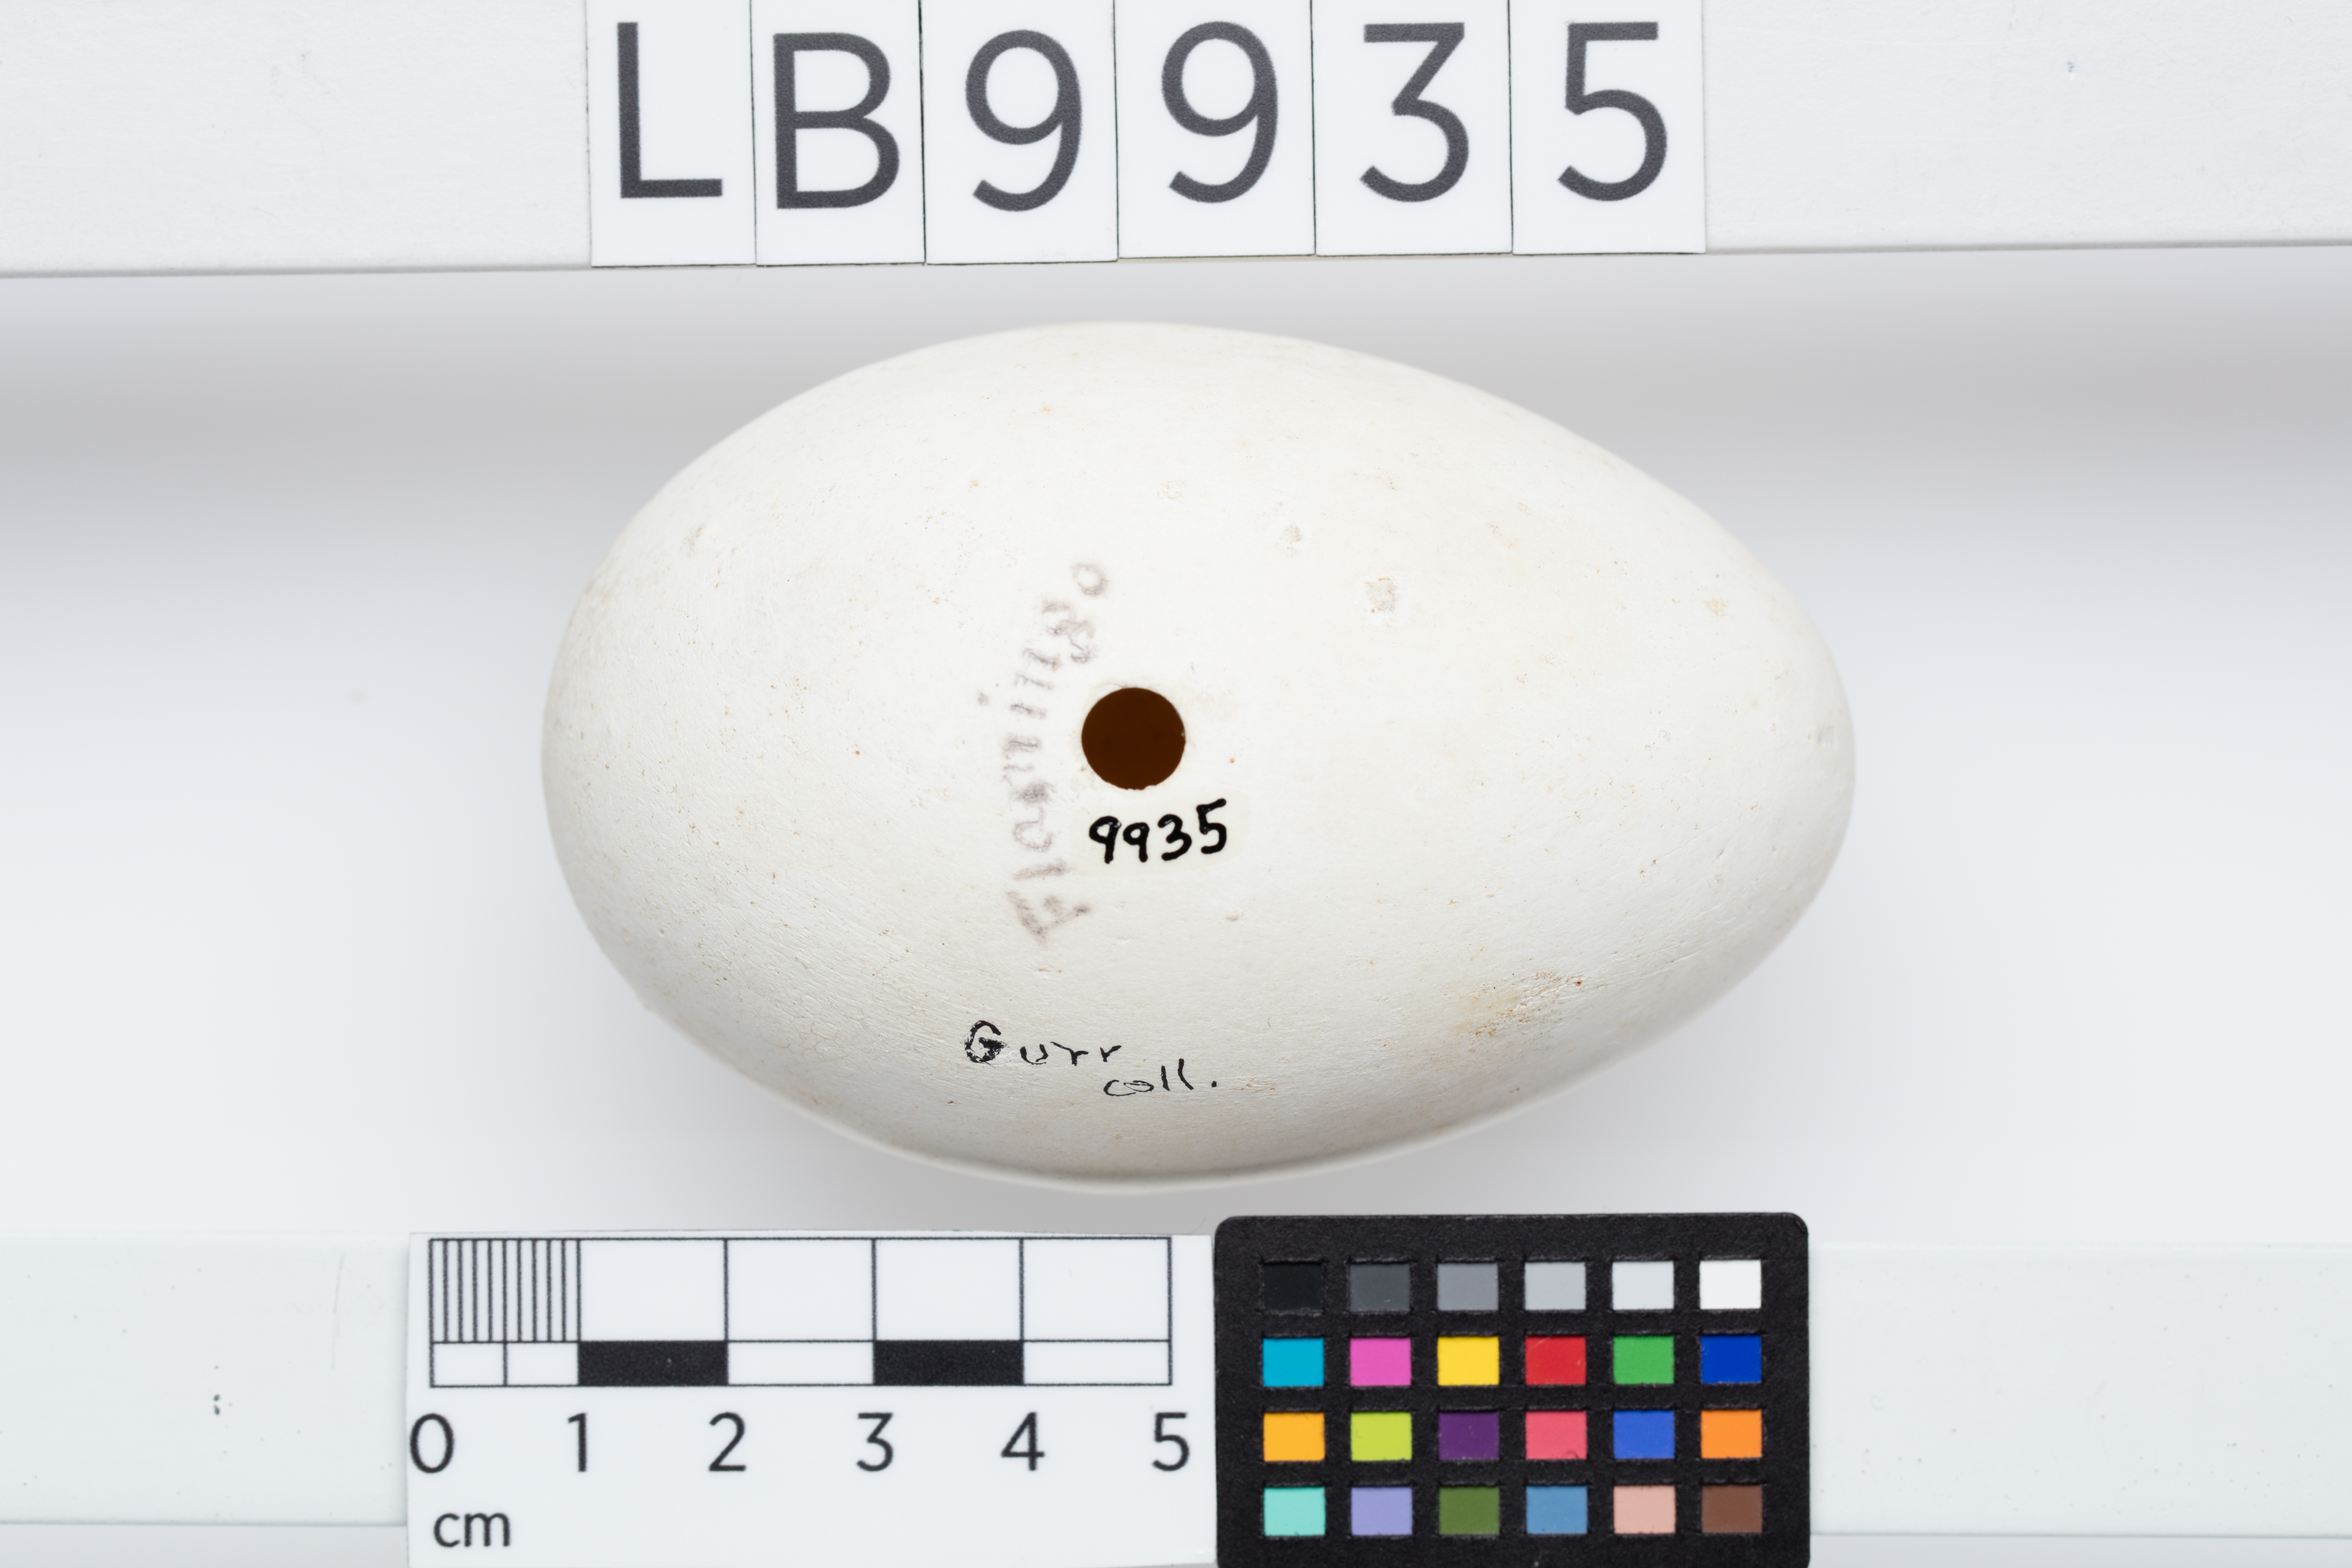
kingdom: Animalia
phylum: Chordata
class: Aves
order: Phoenicopteriformes
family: Phoenicopteridae
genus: Phoenicopterus
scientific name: Phoenicopterus ruber
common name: American flamingo
